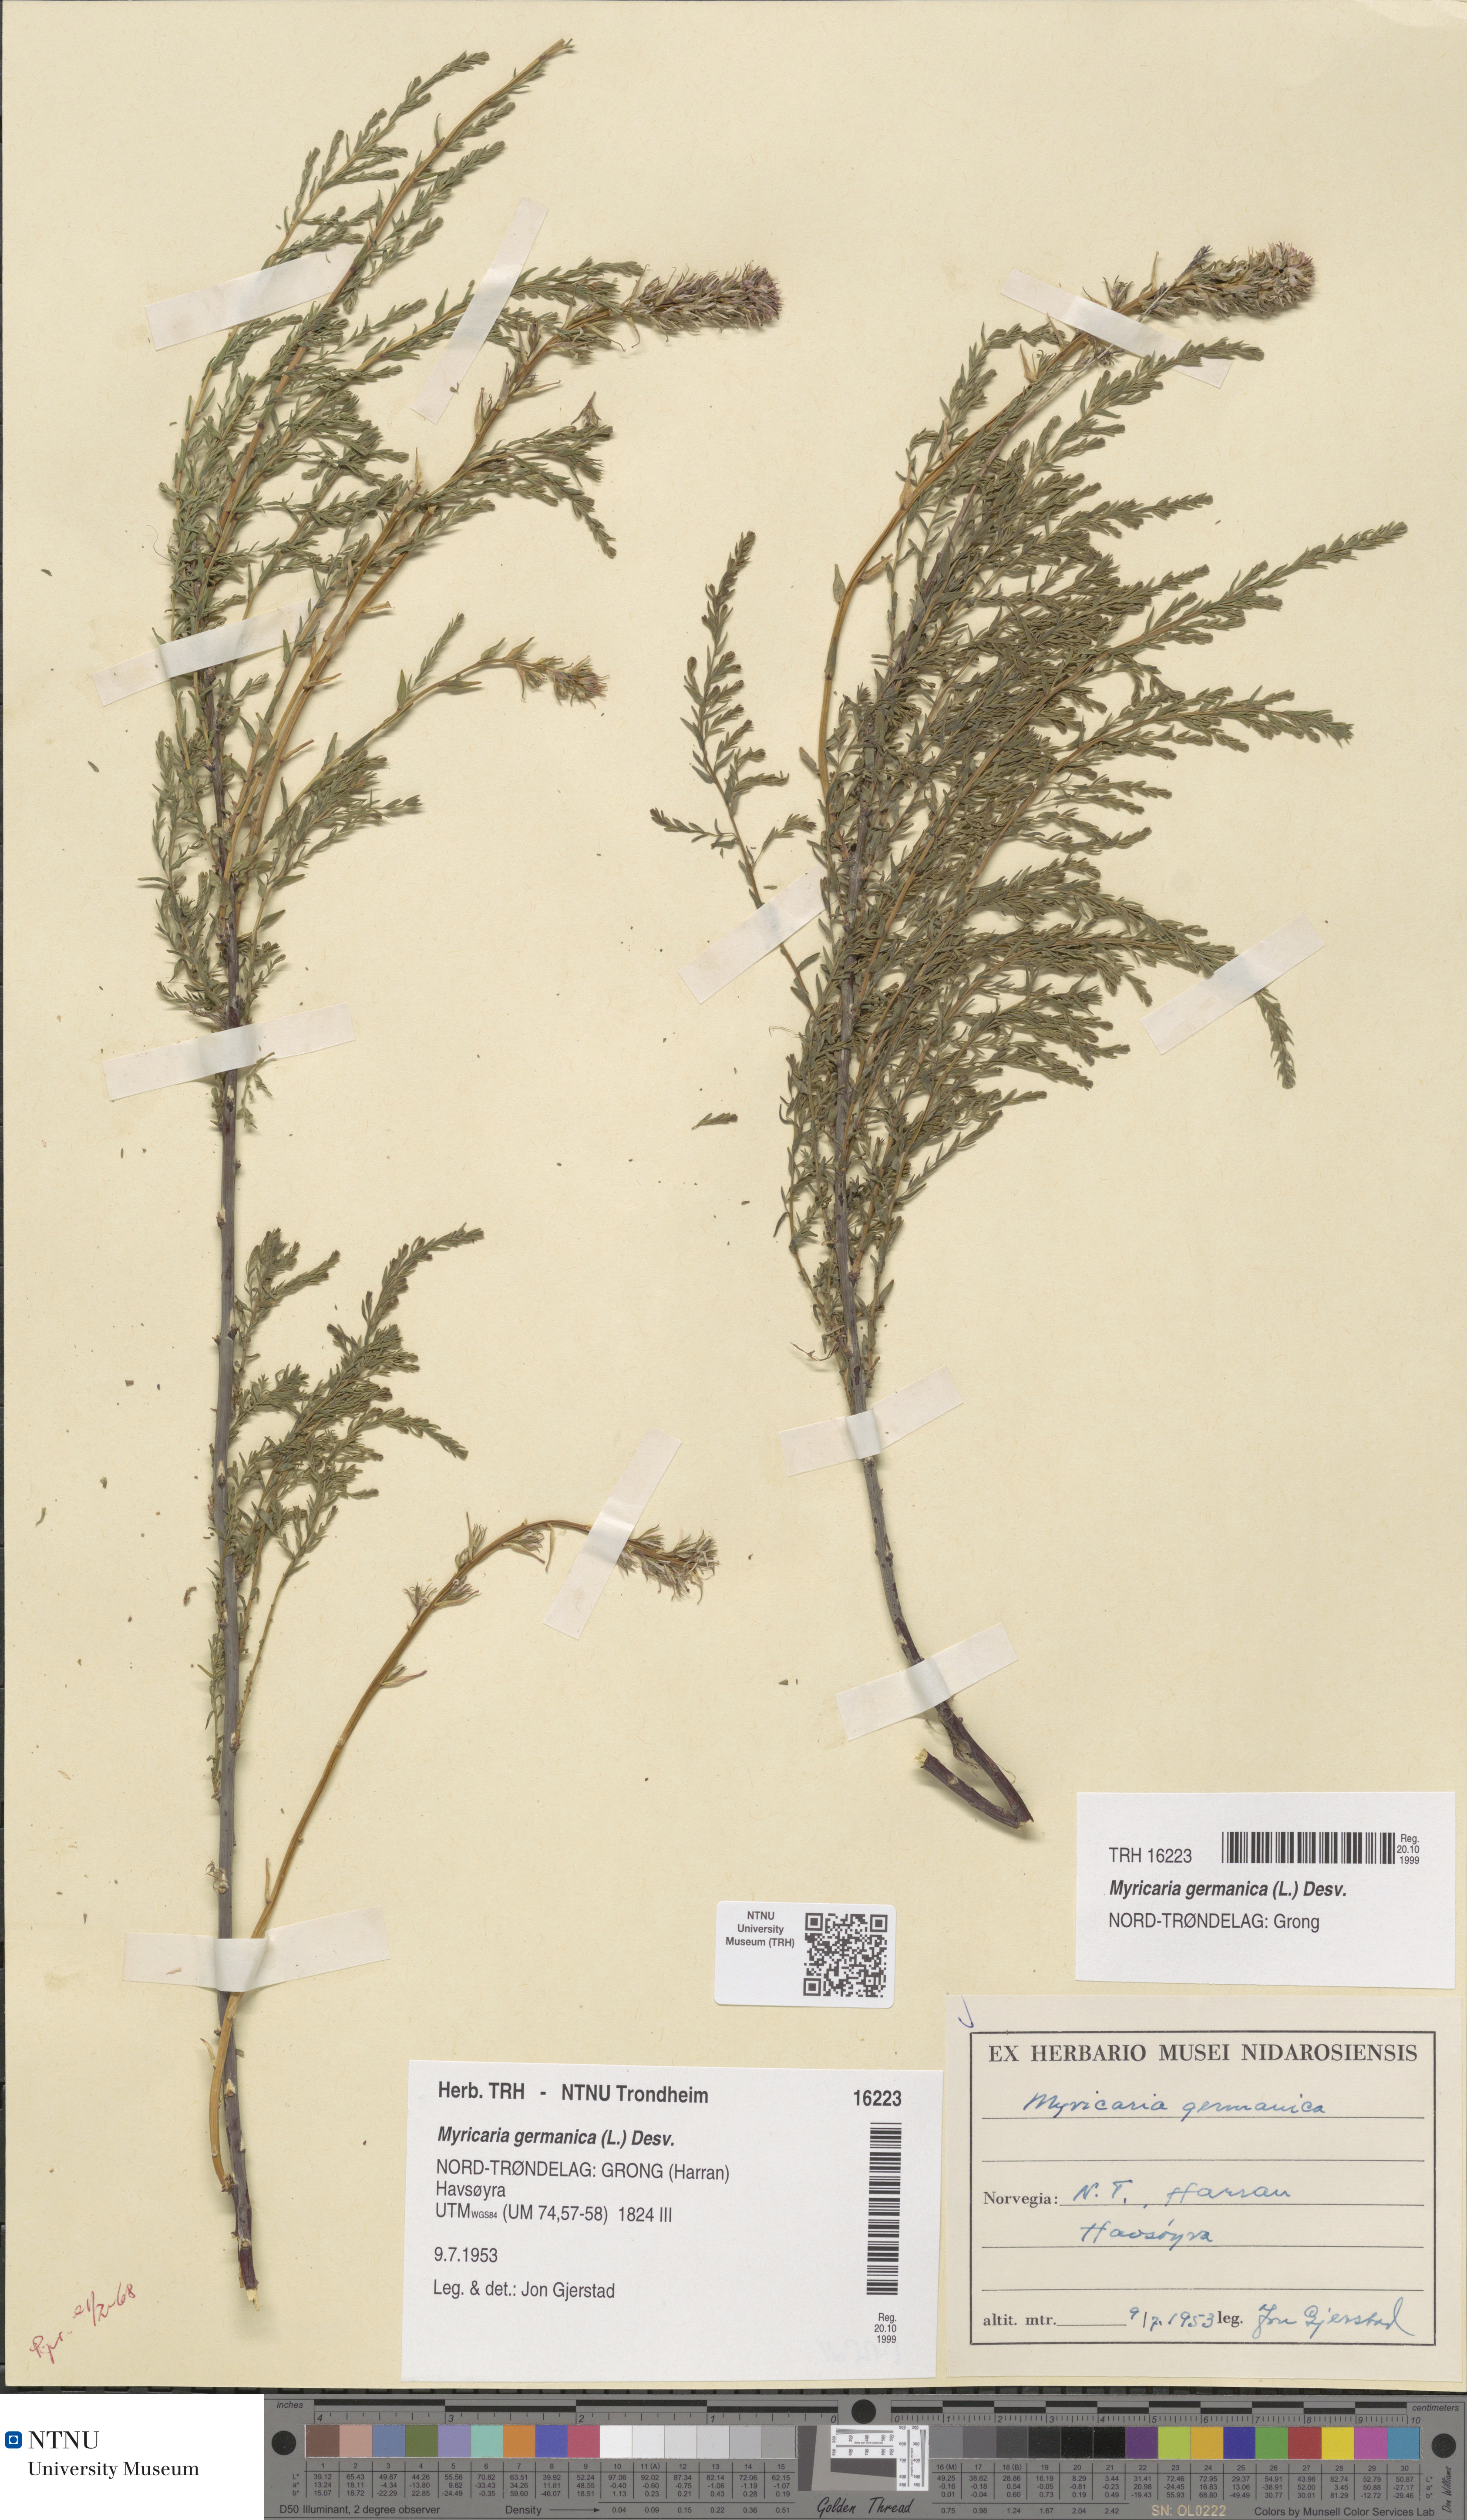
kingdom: Plantae
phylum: Tracheophyta
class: Magnoliopsida
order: Caryophyllales
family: Tamaricaceae
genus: Myricaria
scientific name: Myricaria germanica
